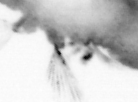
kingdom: Animalia
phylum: Annelida
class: Polychaeta
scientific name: Polychaeta
